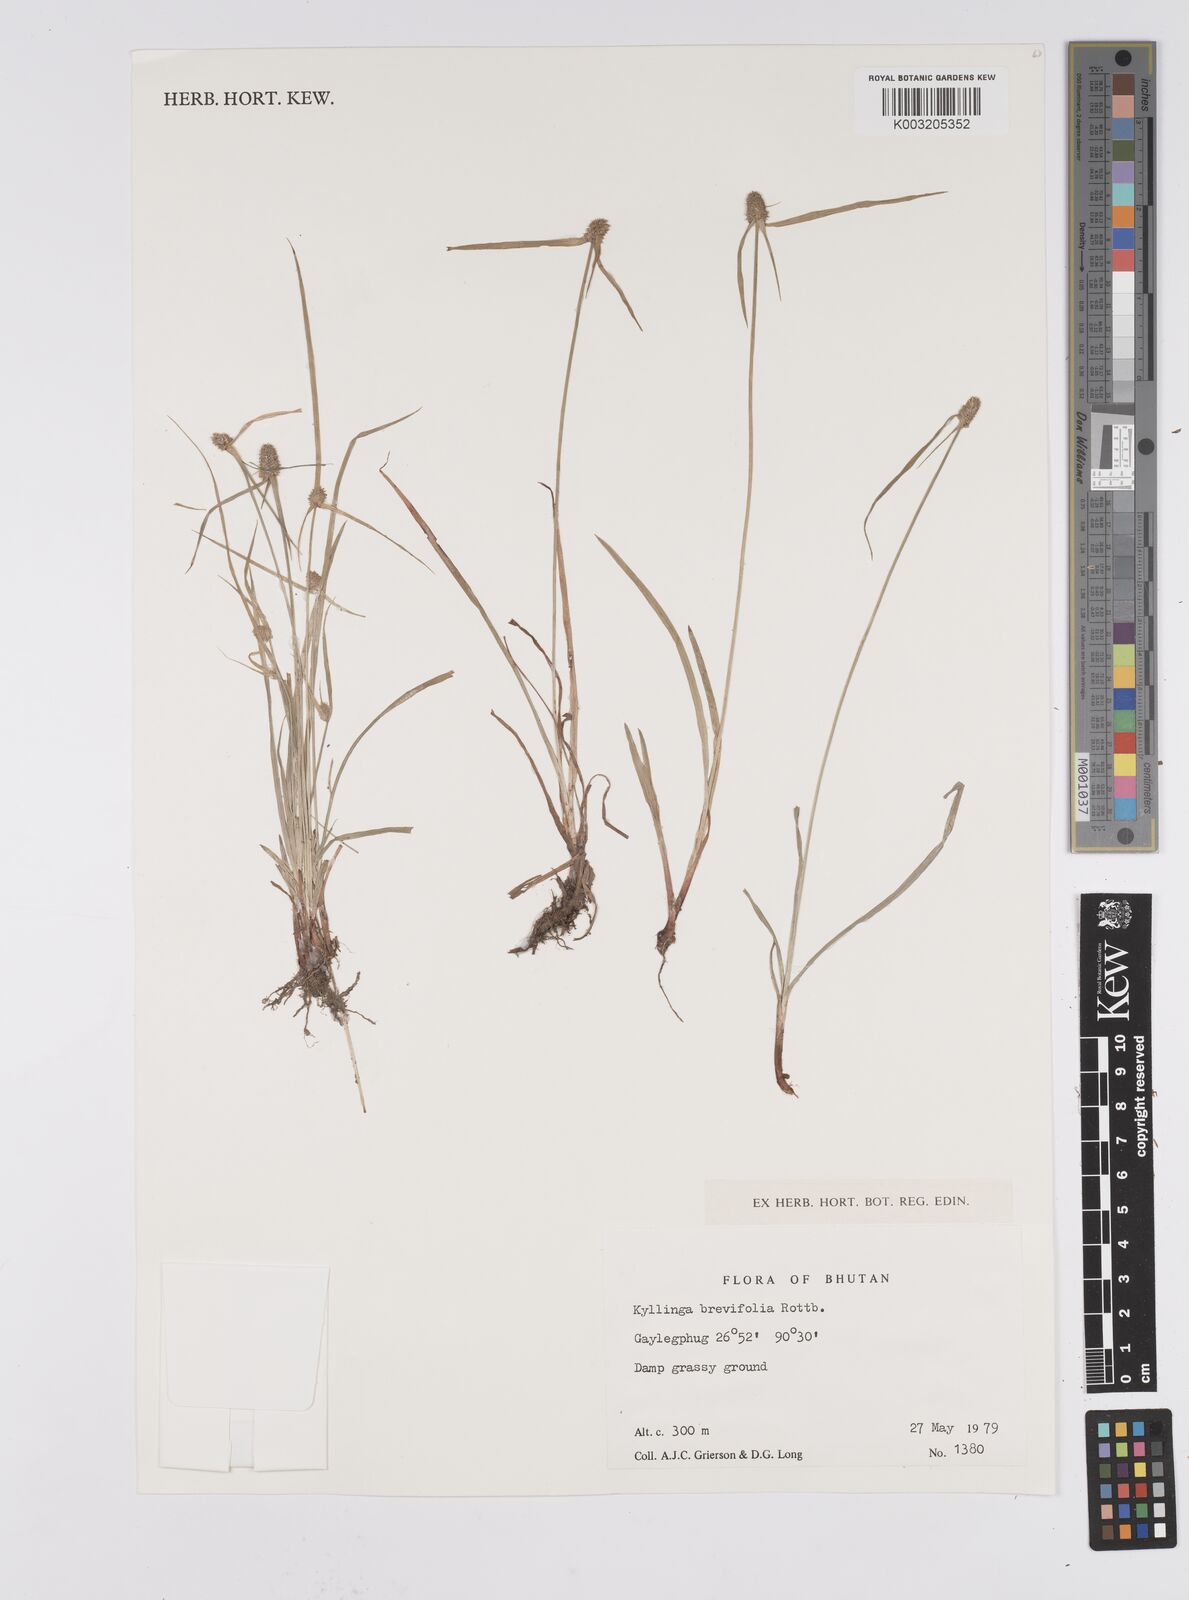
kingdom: Plantae
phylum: Tracheophyta
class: Liliopsida
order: Poales
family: Cyperaceae
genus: Cyperus
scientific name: Cyperus brevifolius
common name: Globe kyllinga
